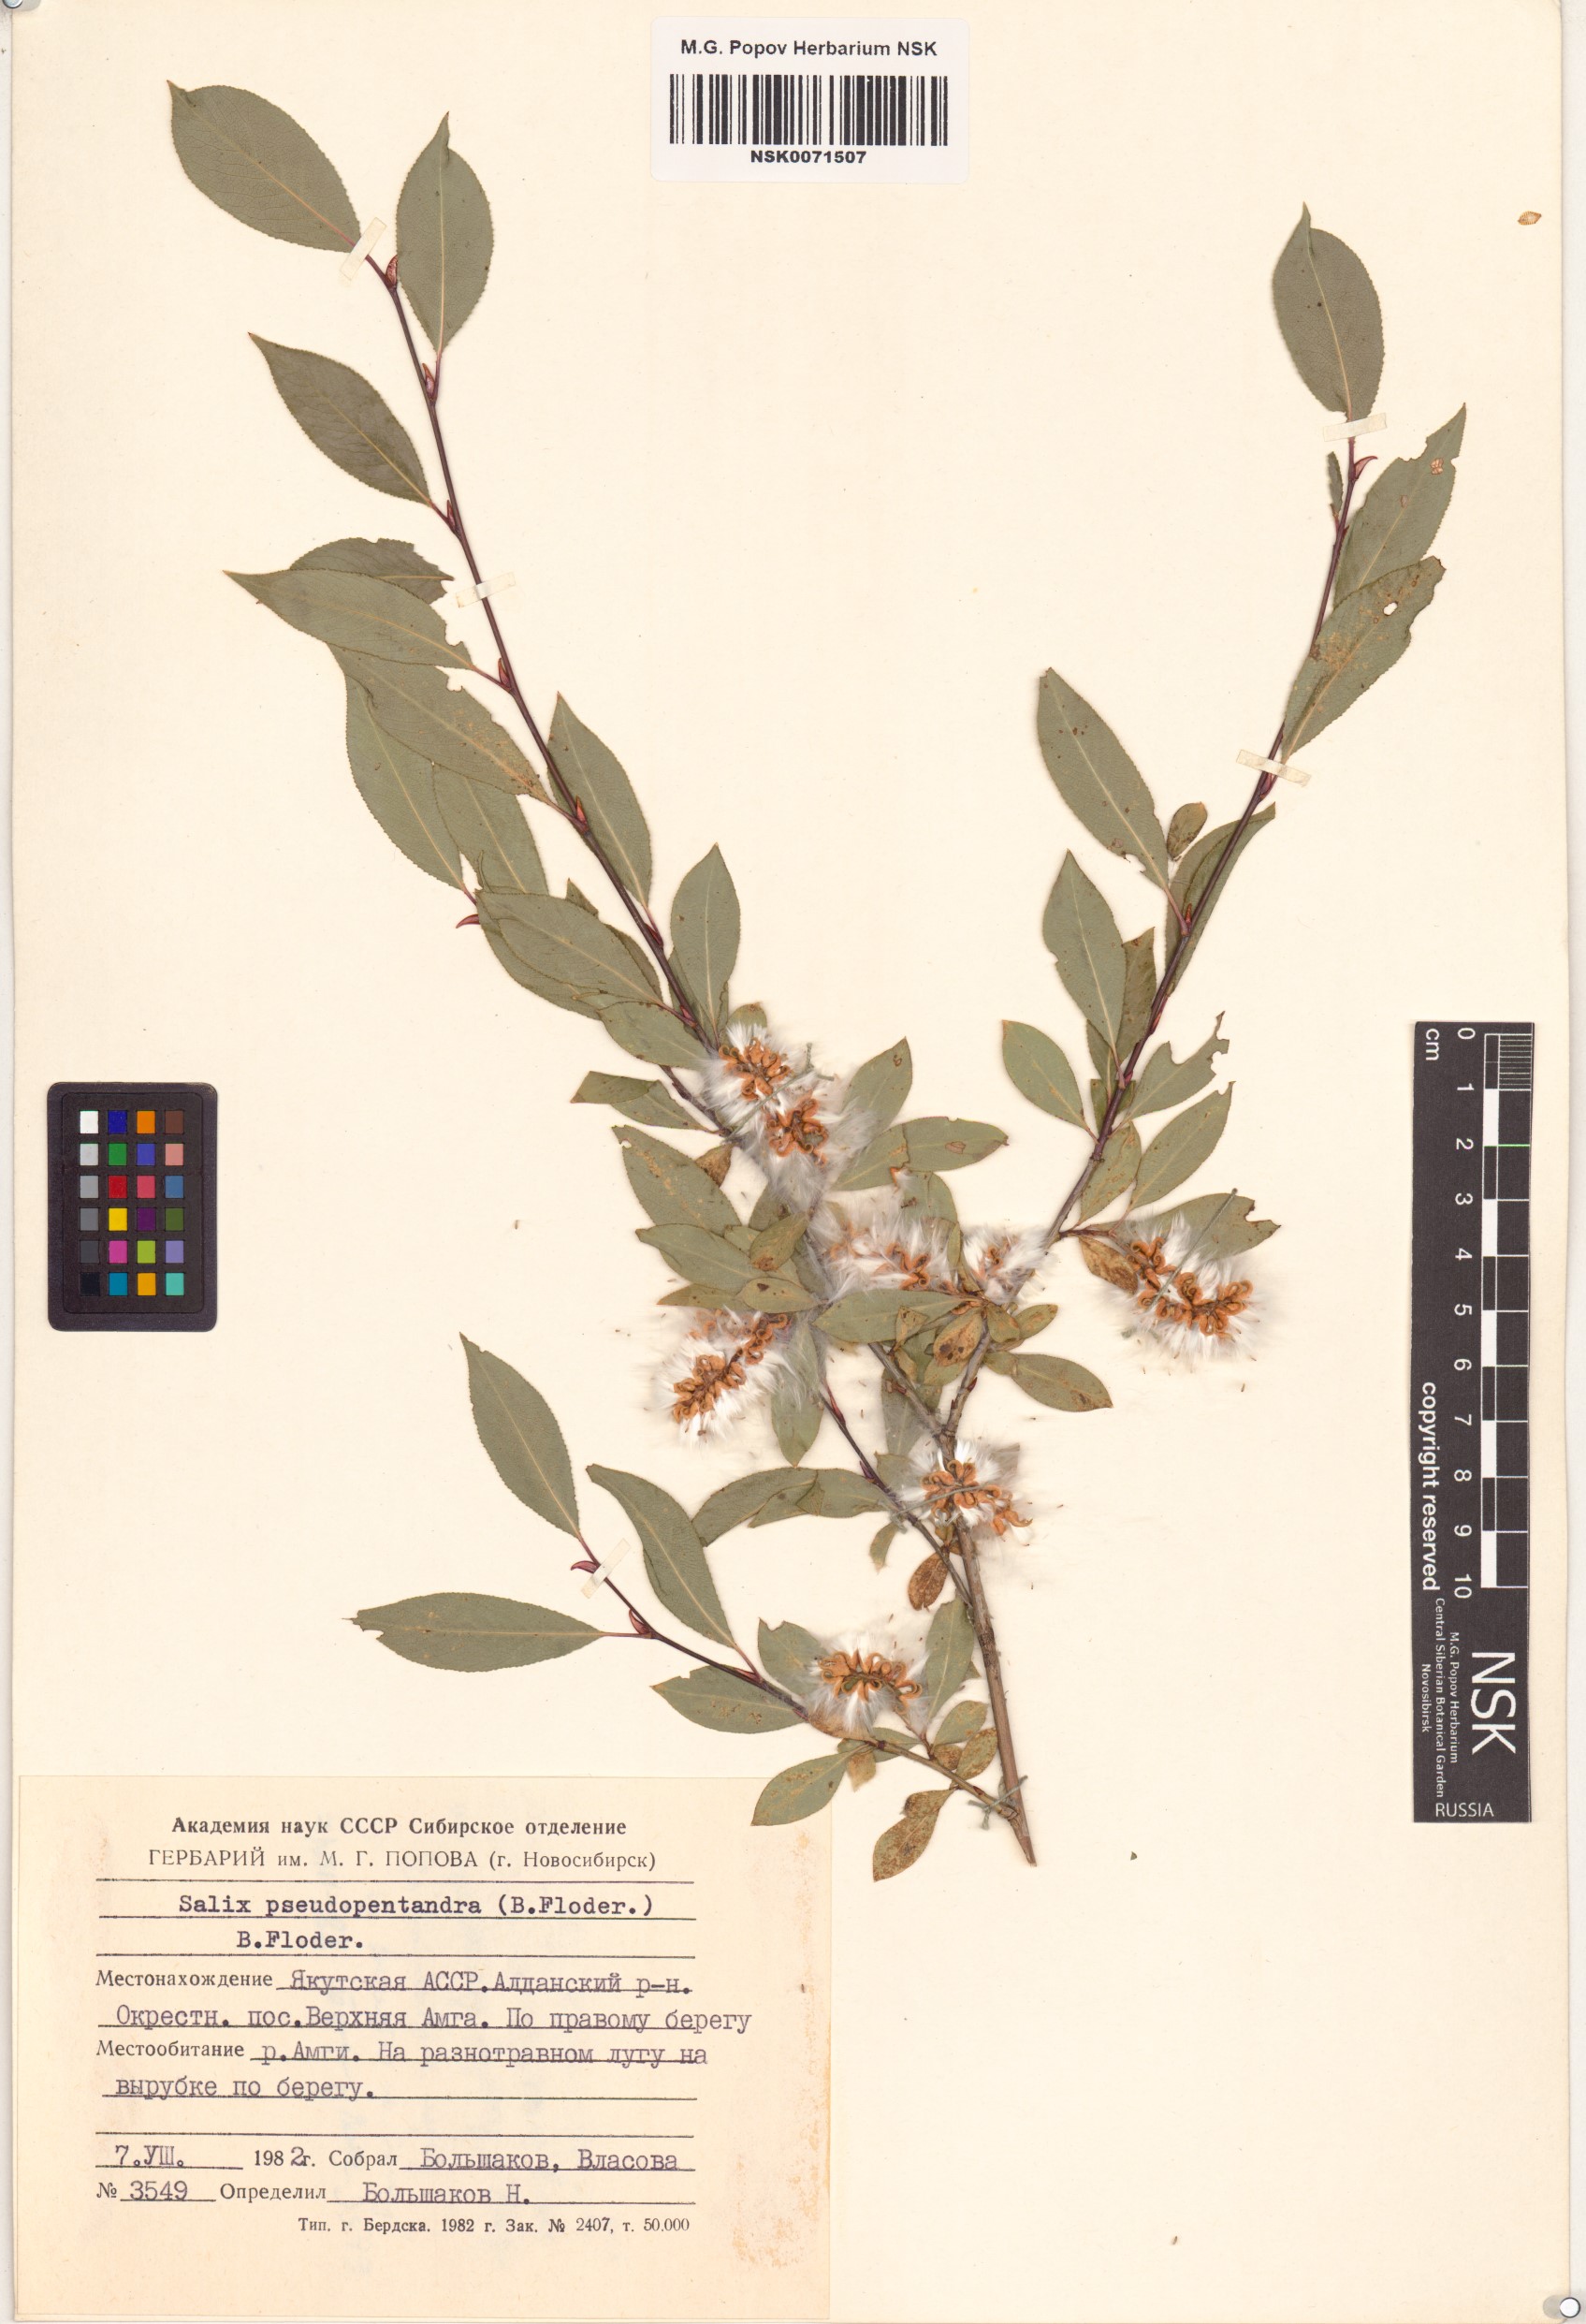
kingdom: Plantae
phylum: Tracheophyta
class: Magnoliopsida
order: Malpighiales
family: Salicaceae
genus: Salix
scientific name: Salix pseudopentandra
